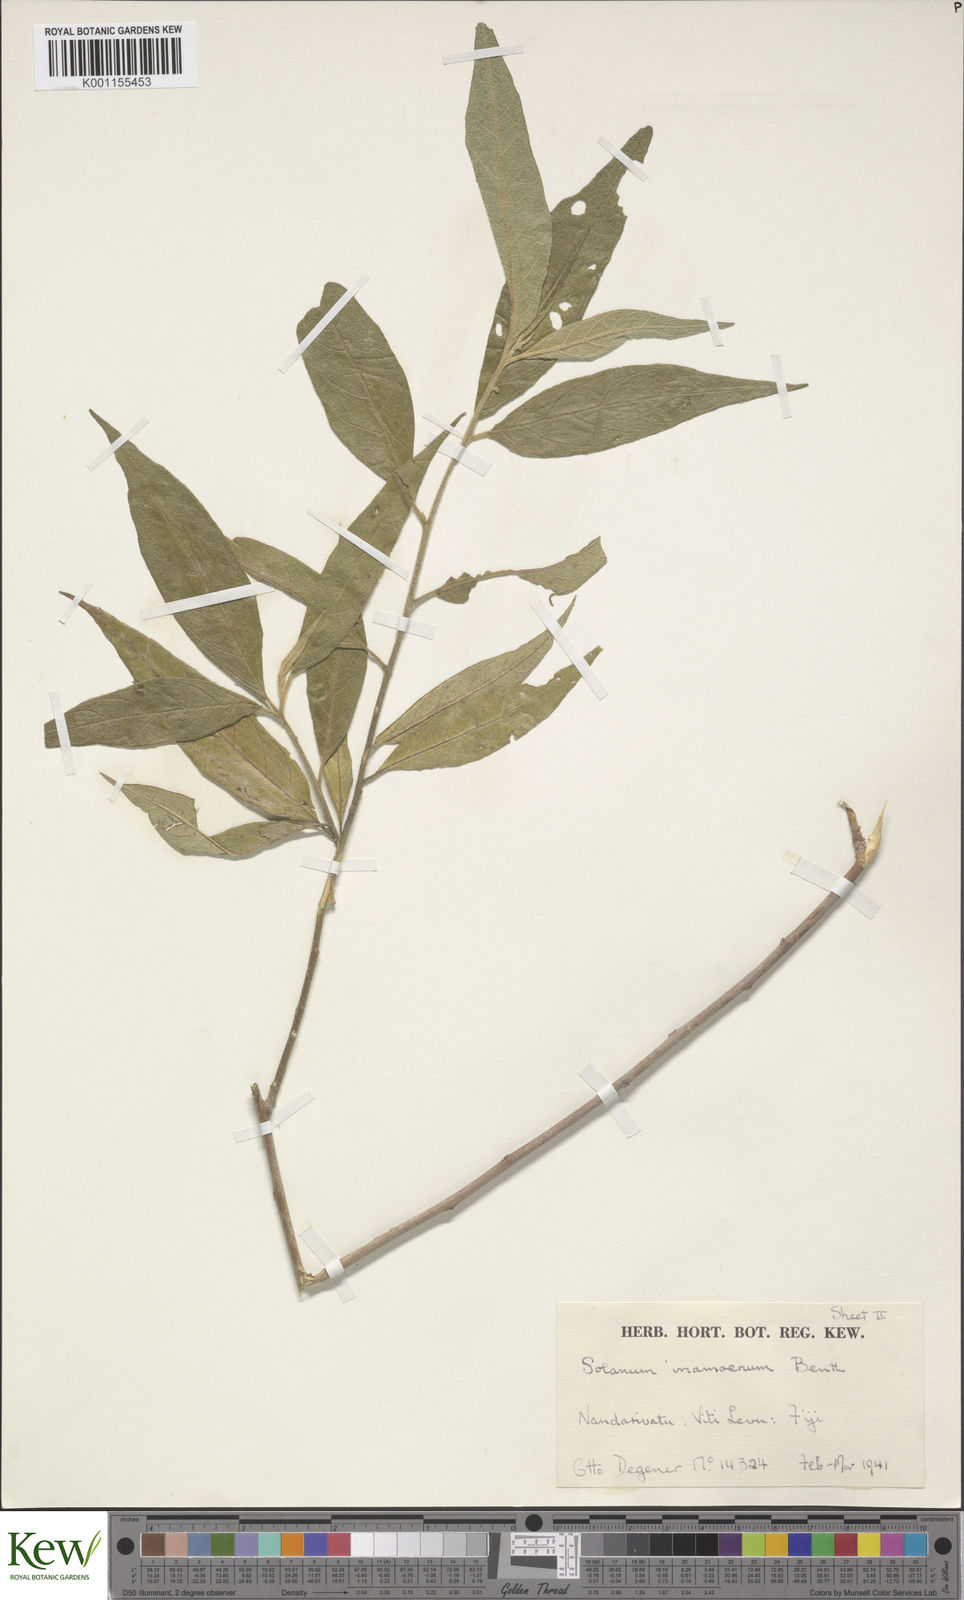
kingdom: Plantae
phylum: Tracheophyta
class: Magnoliopsida
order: Solanales
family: Solanaceae
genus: Solanum
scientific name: Solanum
